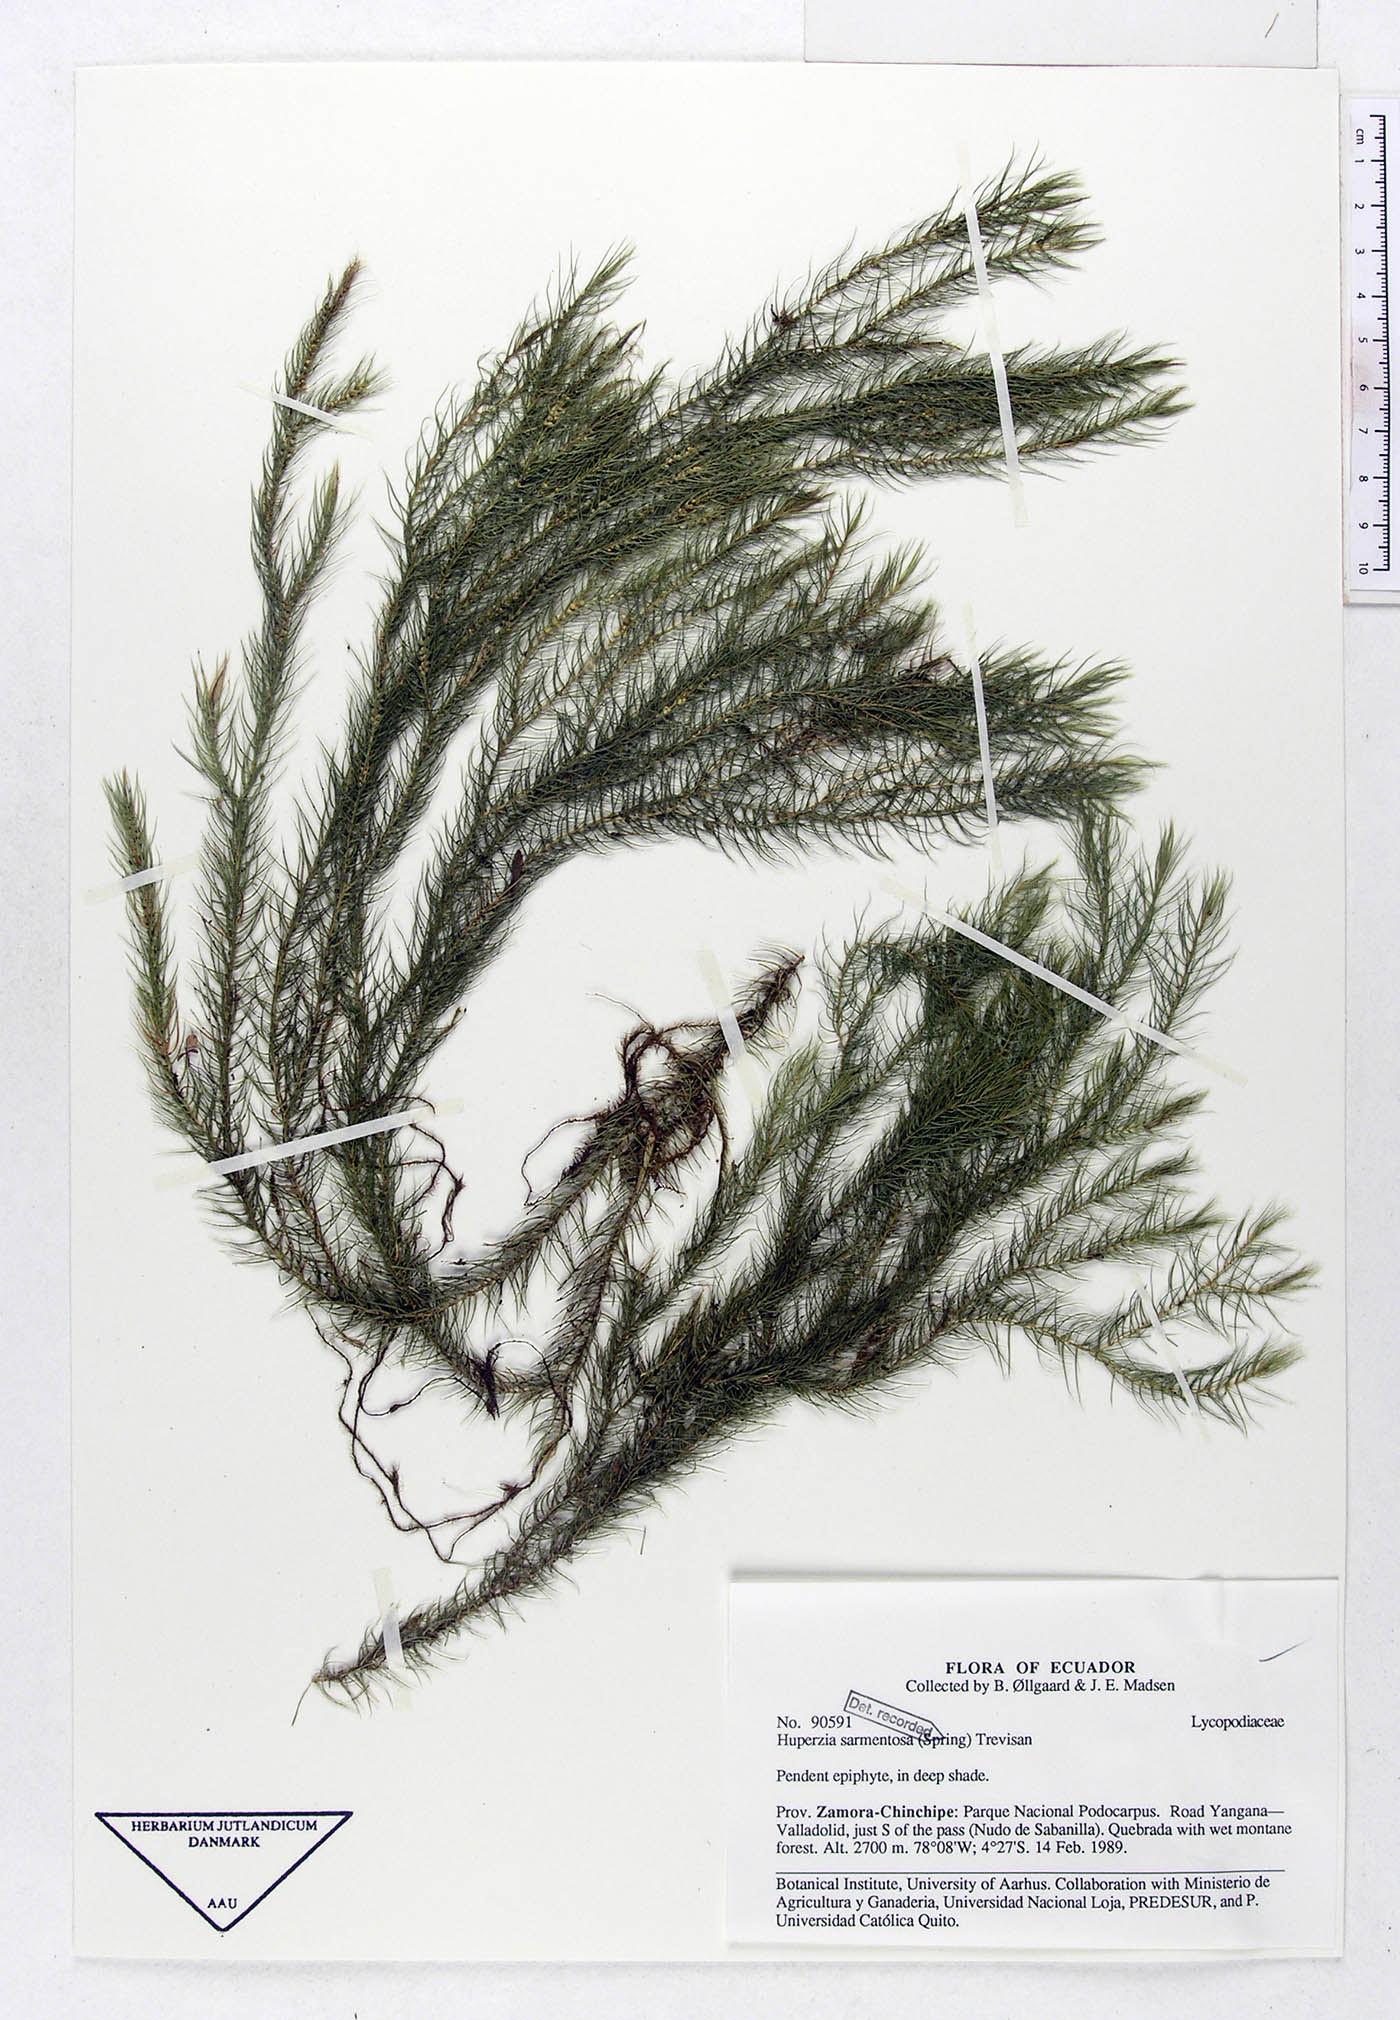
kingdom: Plantae
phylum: Tracheophyta
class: Lycopodiopsida
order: Lycopodiales
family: Lycopodiaceae
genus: Phlegmariurus
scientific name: Phlegmariurus sarmentosus
